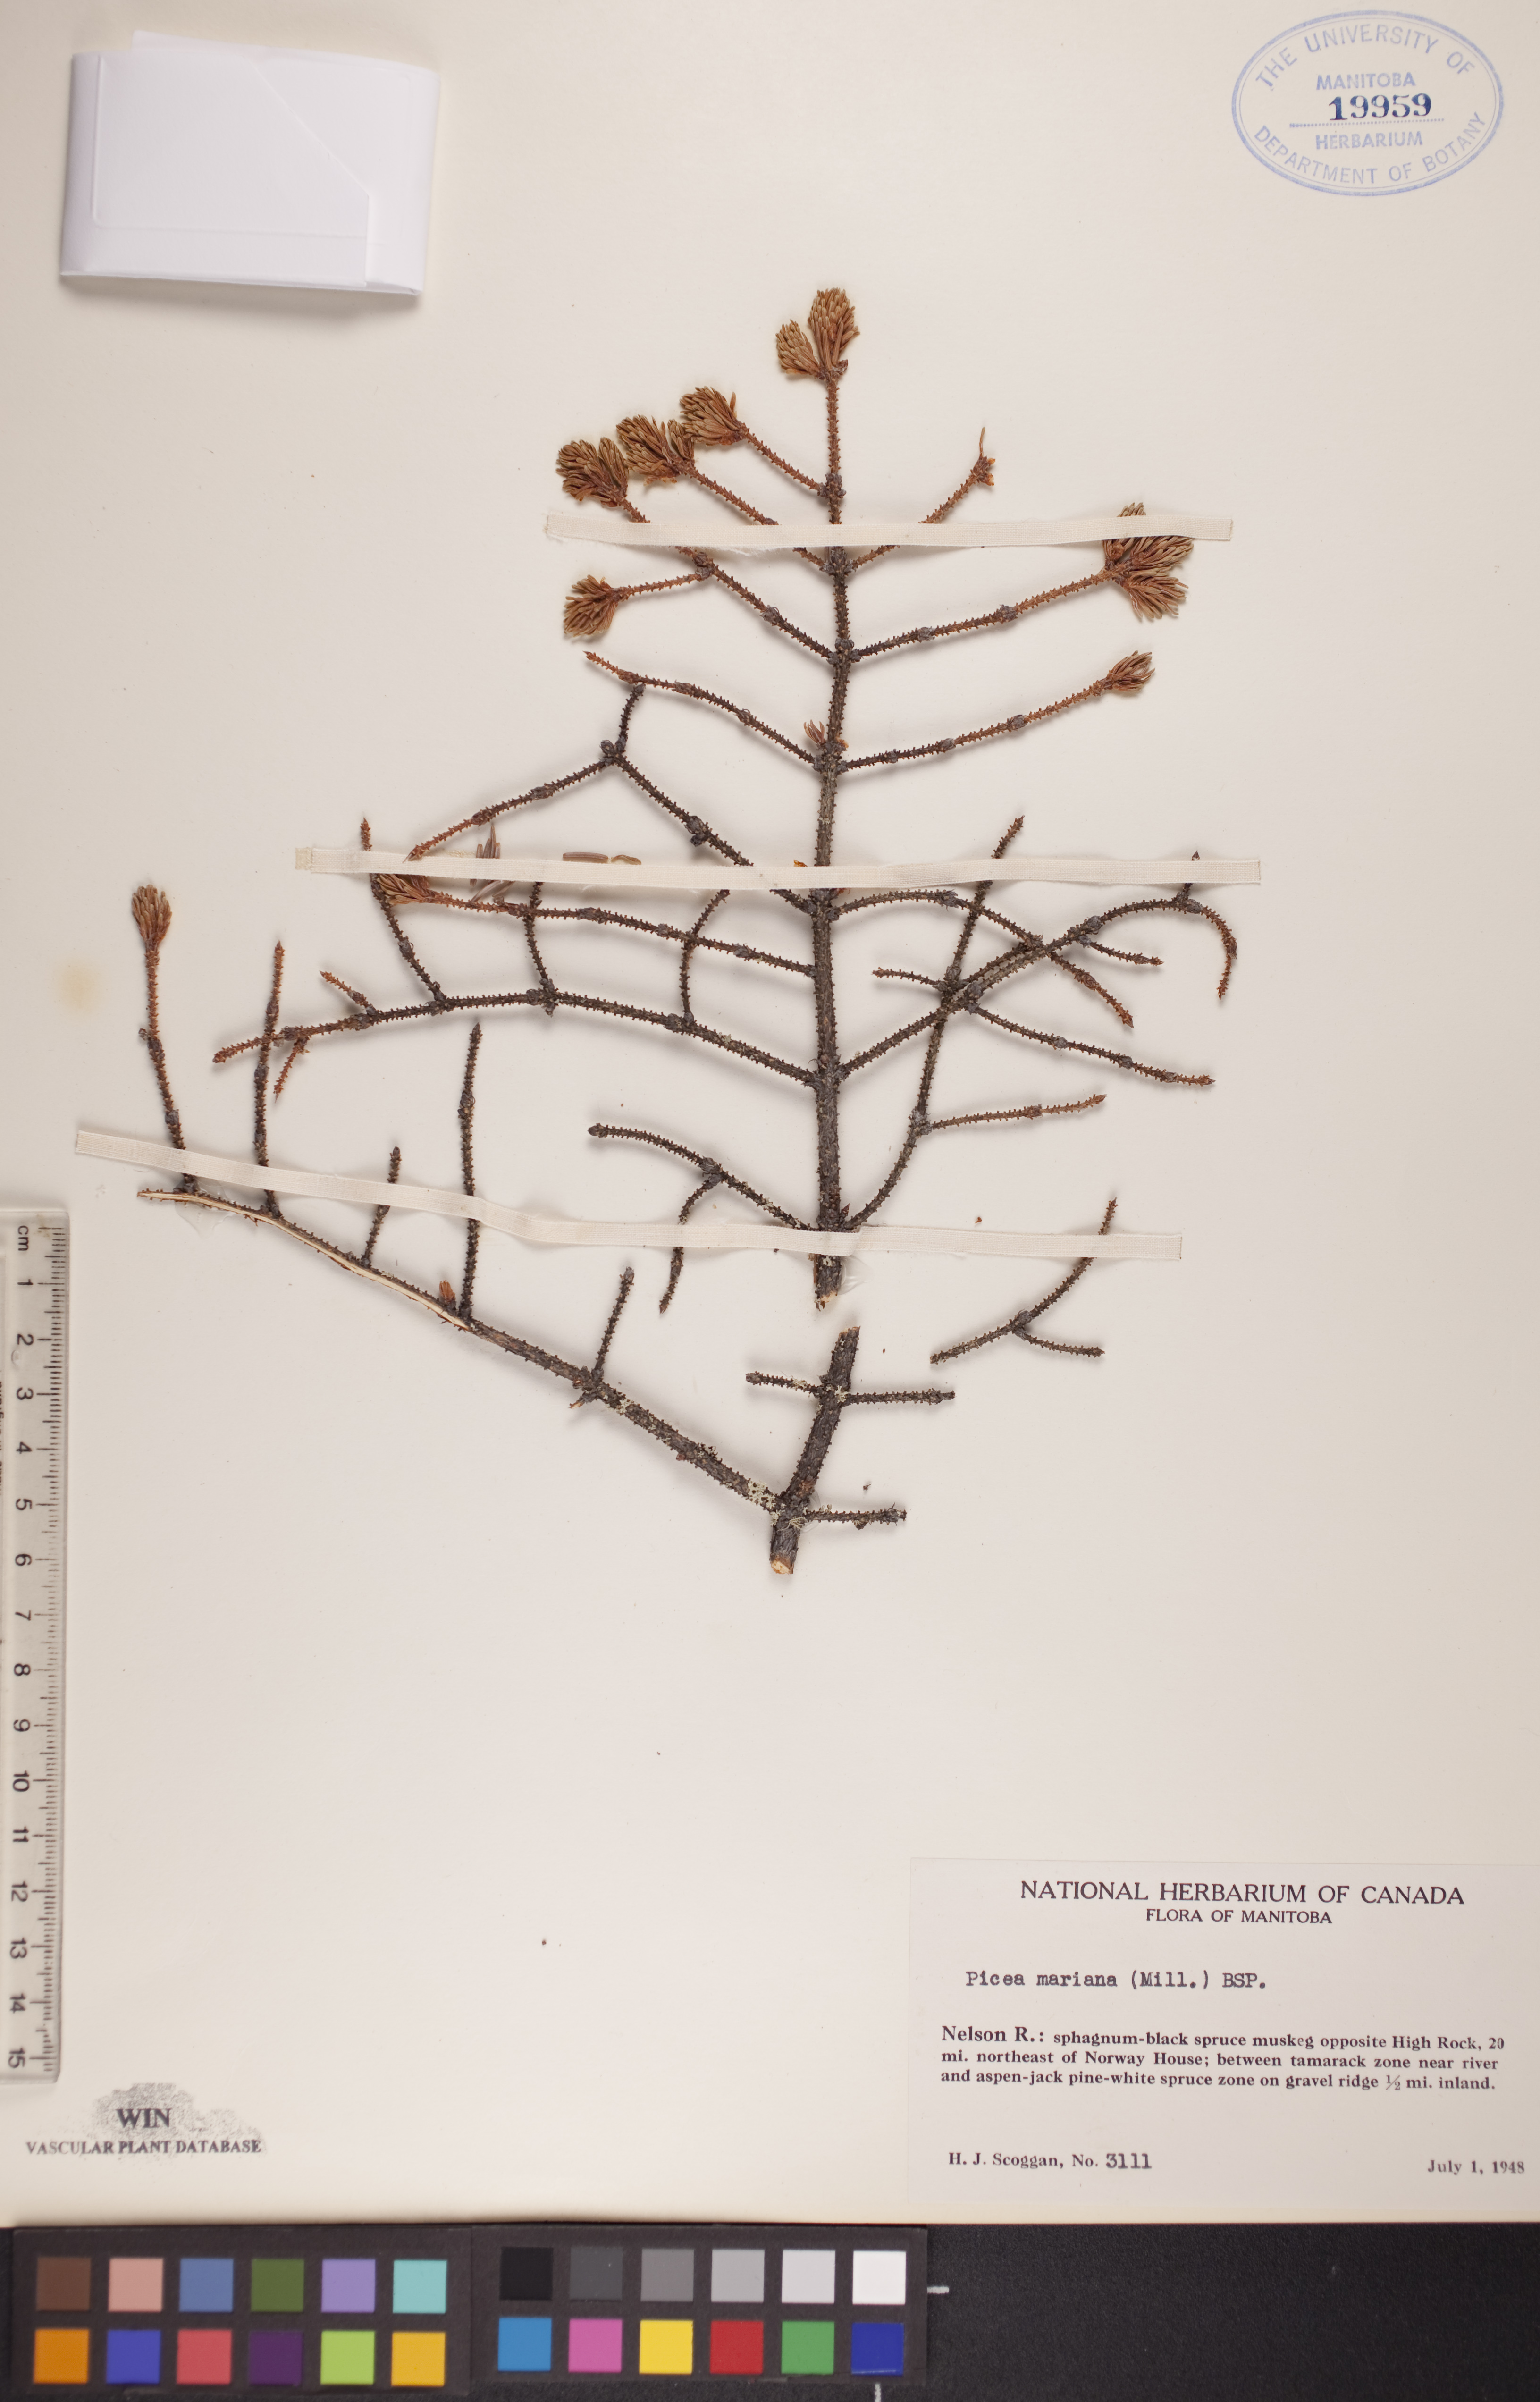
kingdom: Plantae
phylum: Tracheophyta
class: Pinopsida
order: Pinales
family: Pinaceae
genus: Picea
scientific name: Picea mariana
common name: Black spruce
